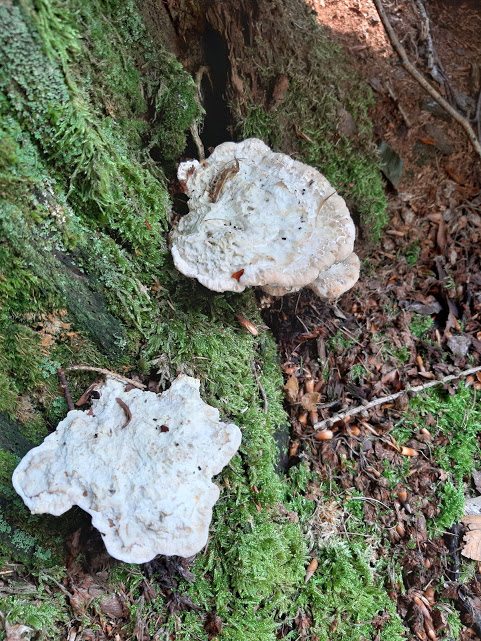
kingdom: Fungi
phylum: Basidiomycota
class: Agaricomycetes
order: Polyporales
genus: Calcipostia
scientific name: Calcipostia guttulata
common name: dråbe-kødporesvamp
